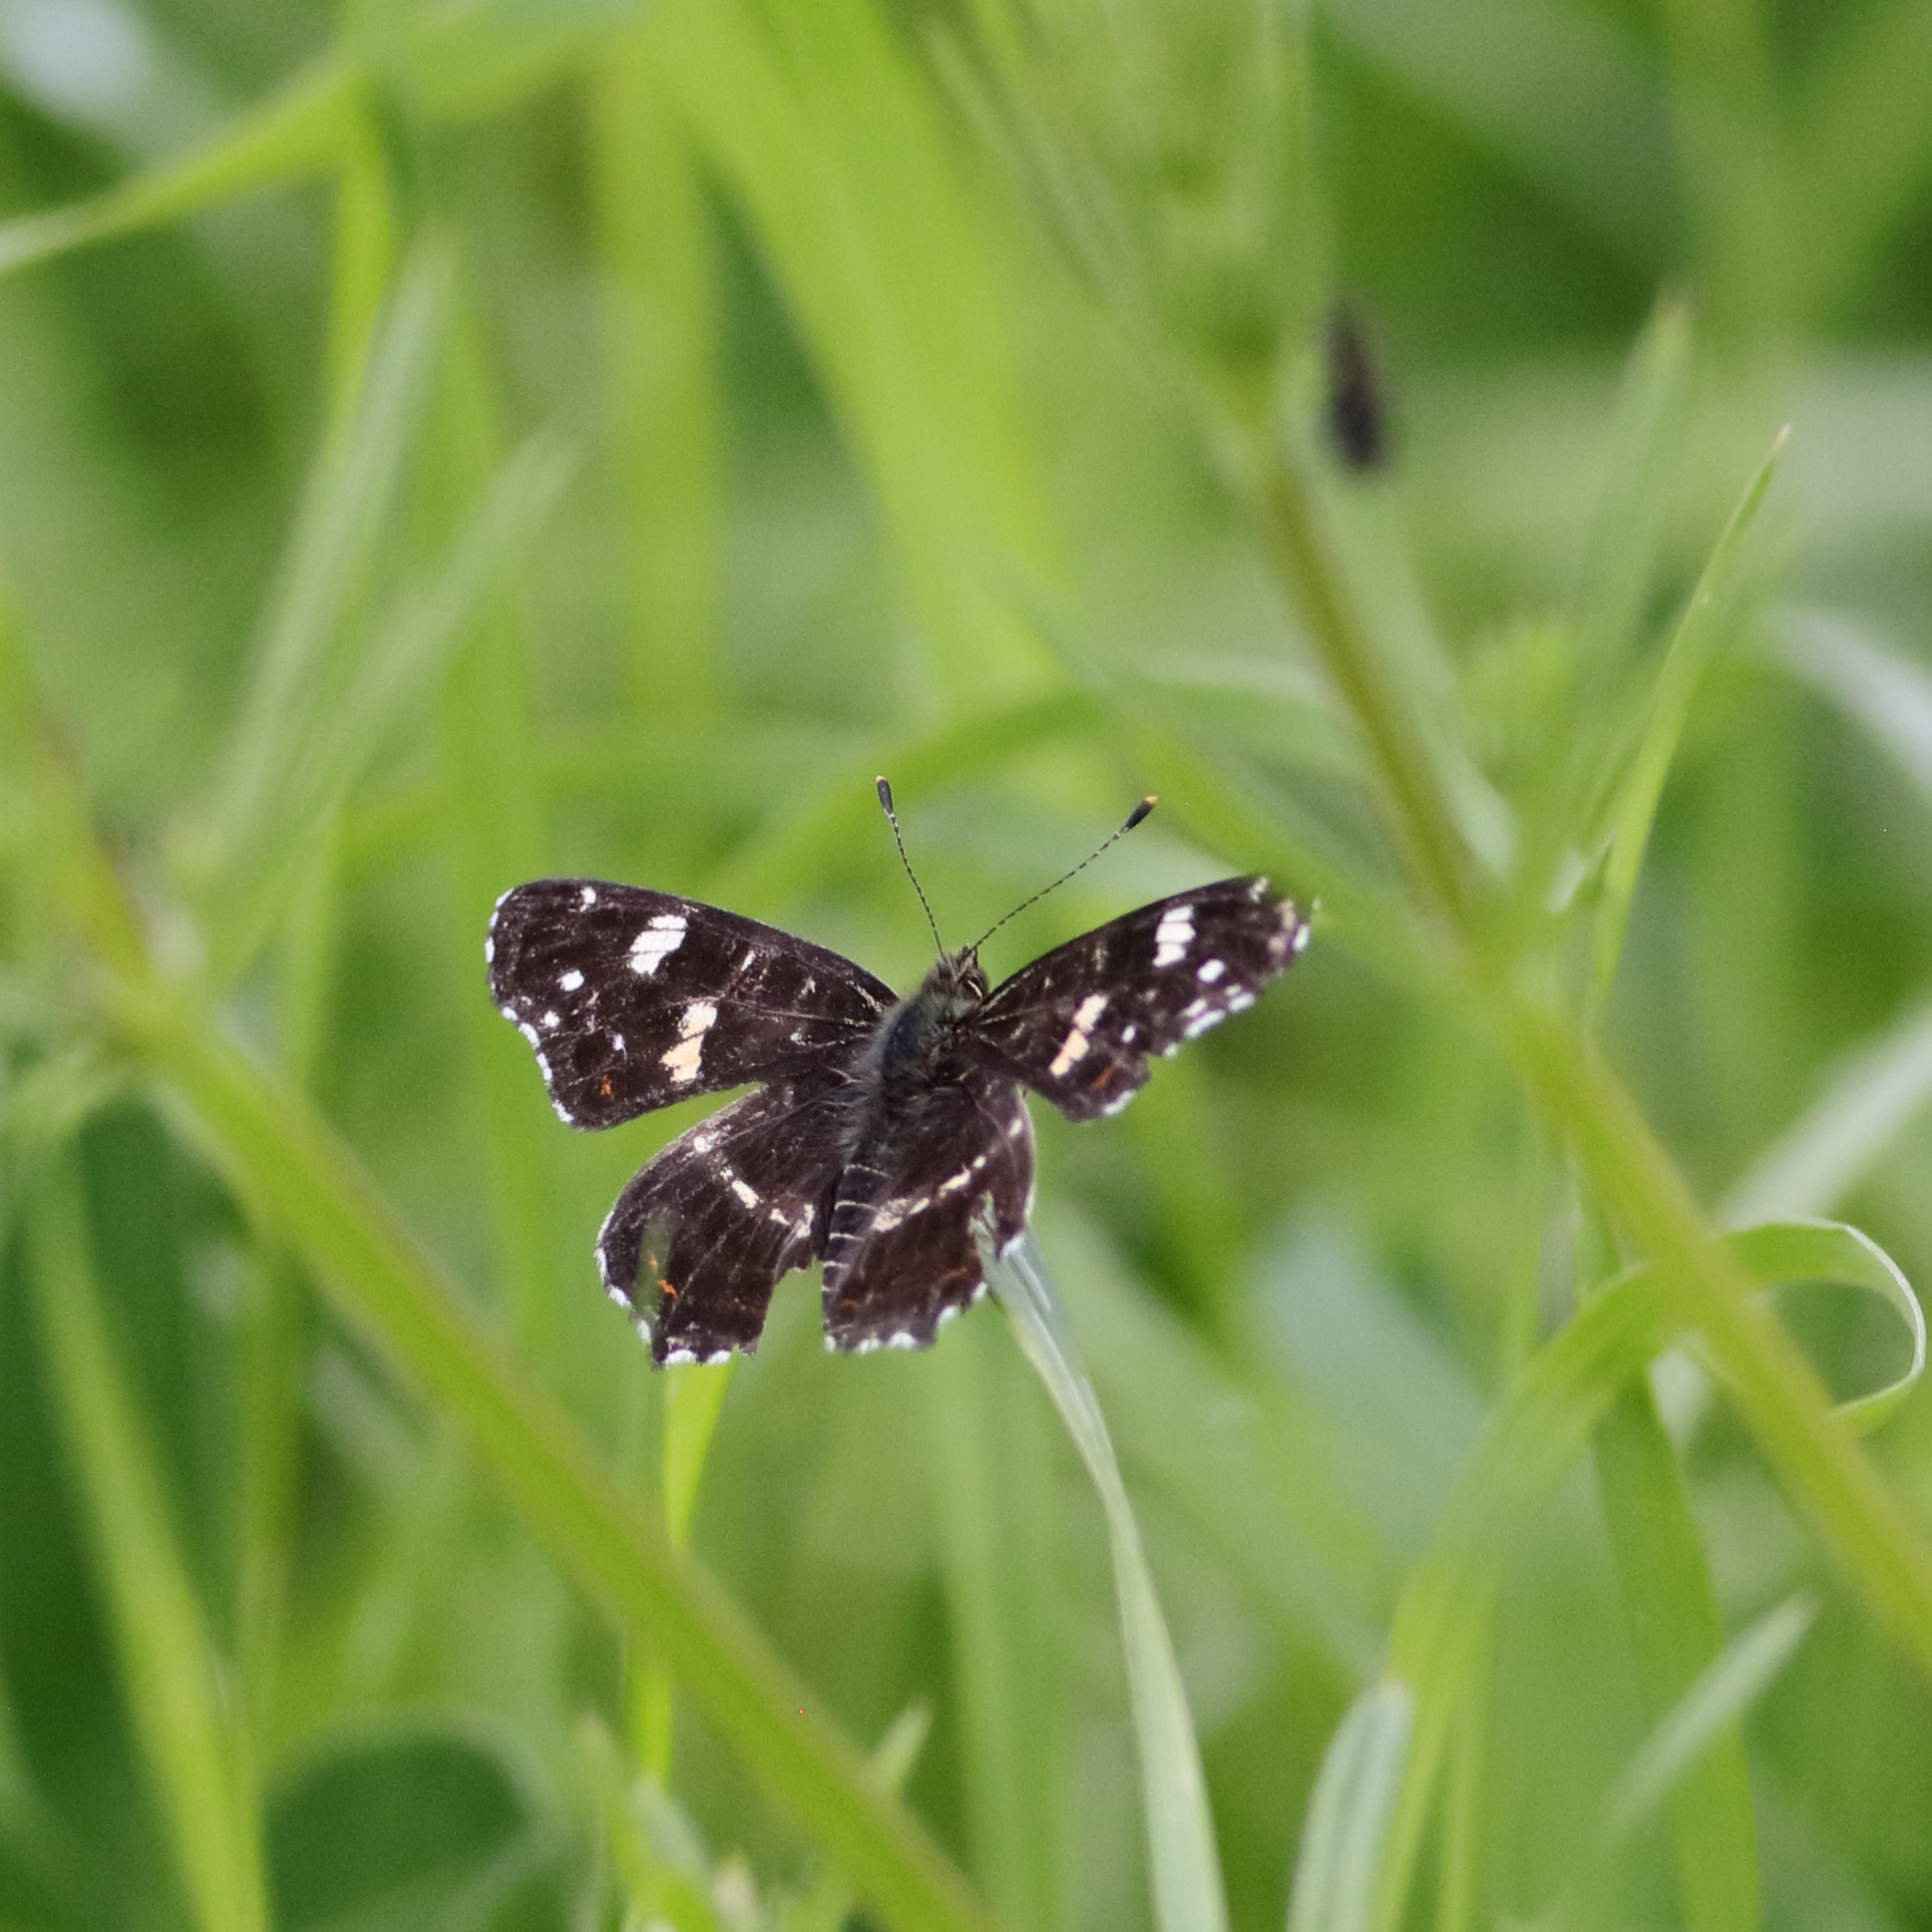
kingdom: Animalia
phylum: Arthropoda
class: Insecta
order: Lepidoptera
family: Nymphalidae
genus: Araschnia
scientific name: Araschnia levana
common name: Nældesommerfugl
